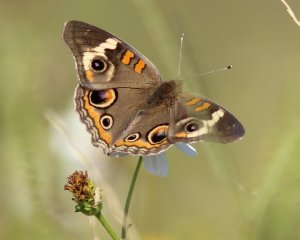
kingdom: Animalia
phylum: Arthropoda
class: Insecta
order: Lepidoptera
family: Nymphalidae
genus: Junonia
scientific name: Junonia coenia
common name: Common Buckeye
